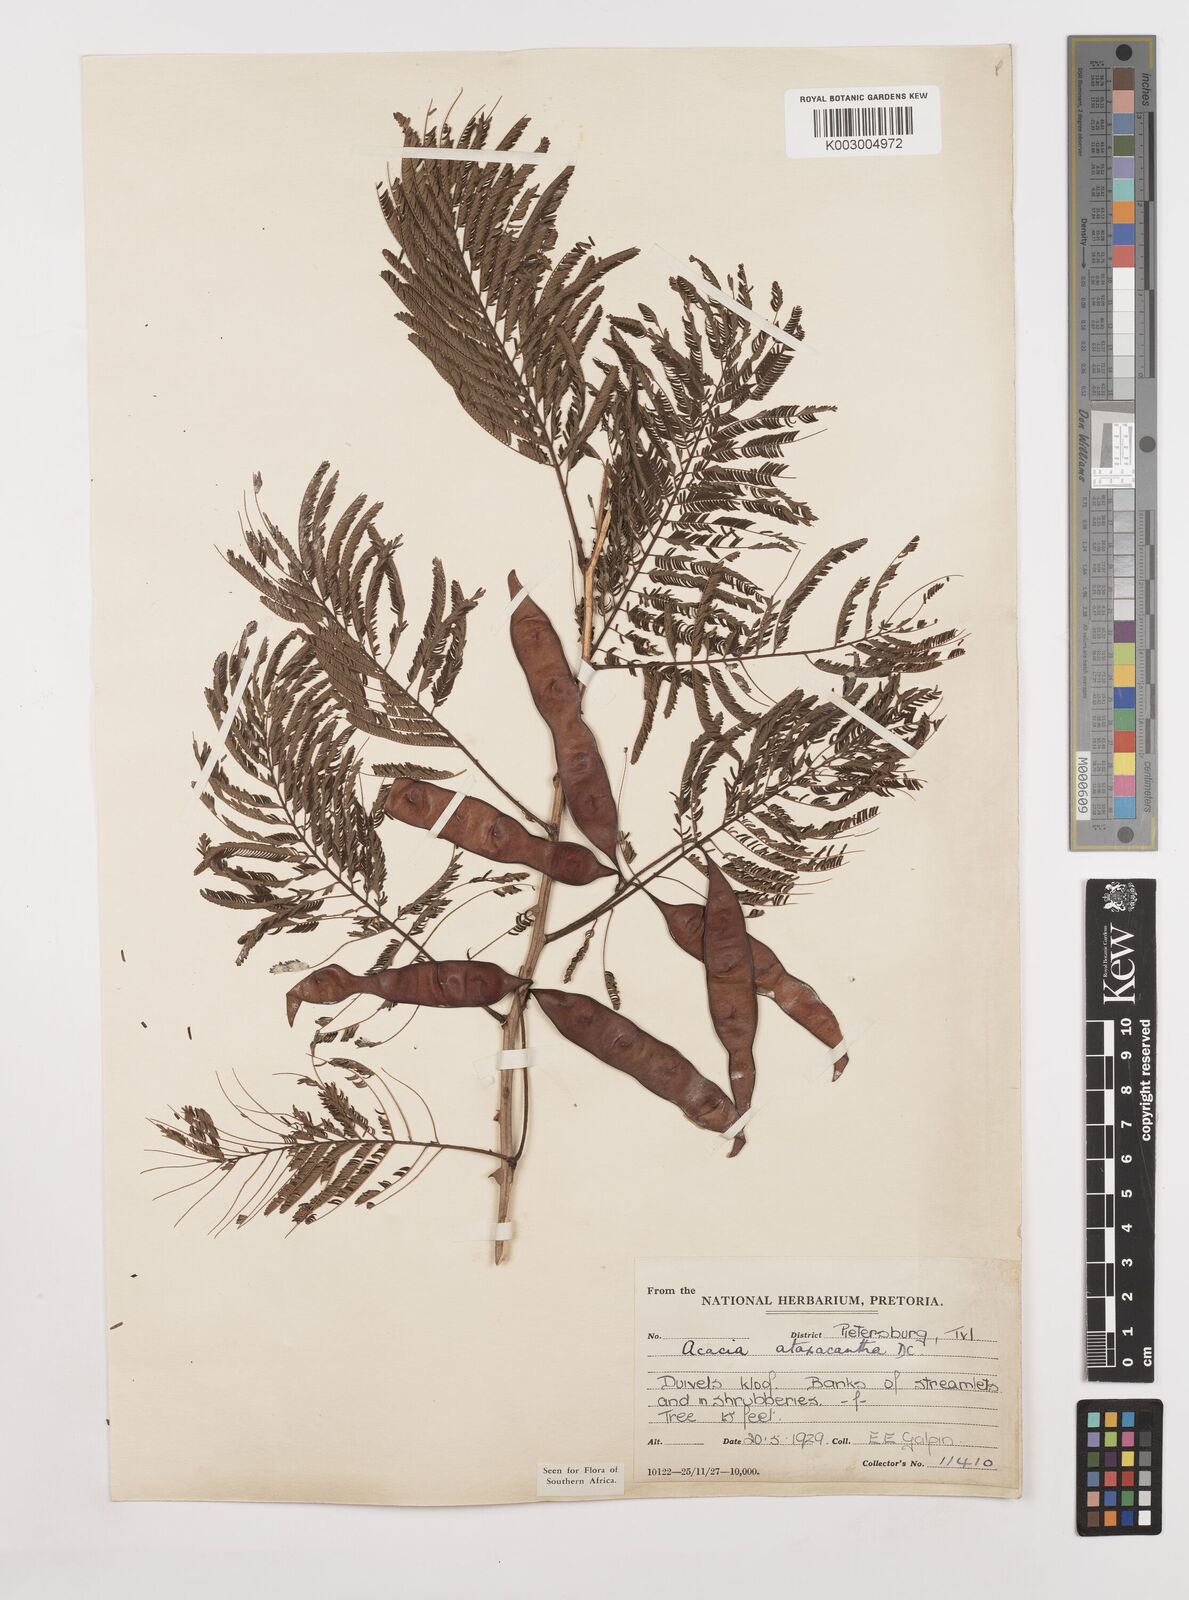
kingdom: Plantae
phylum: Tracheophyta
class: Magnoliopsida
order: Fabales
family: Fabaceae
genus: Senegalia
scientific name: Senegalia ataxacantha
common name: Flame acacia
